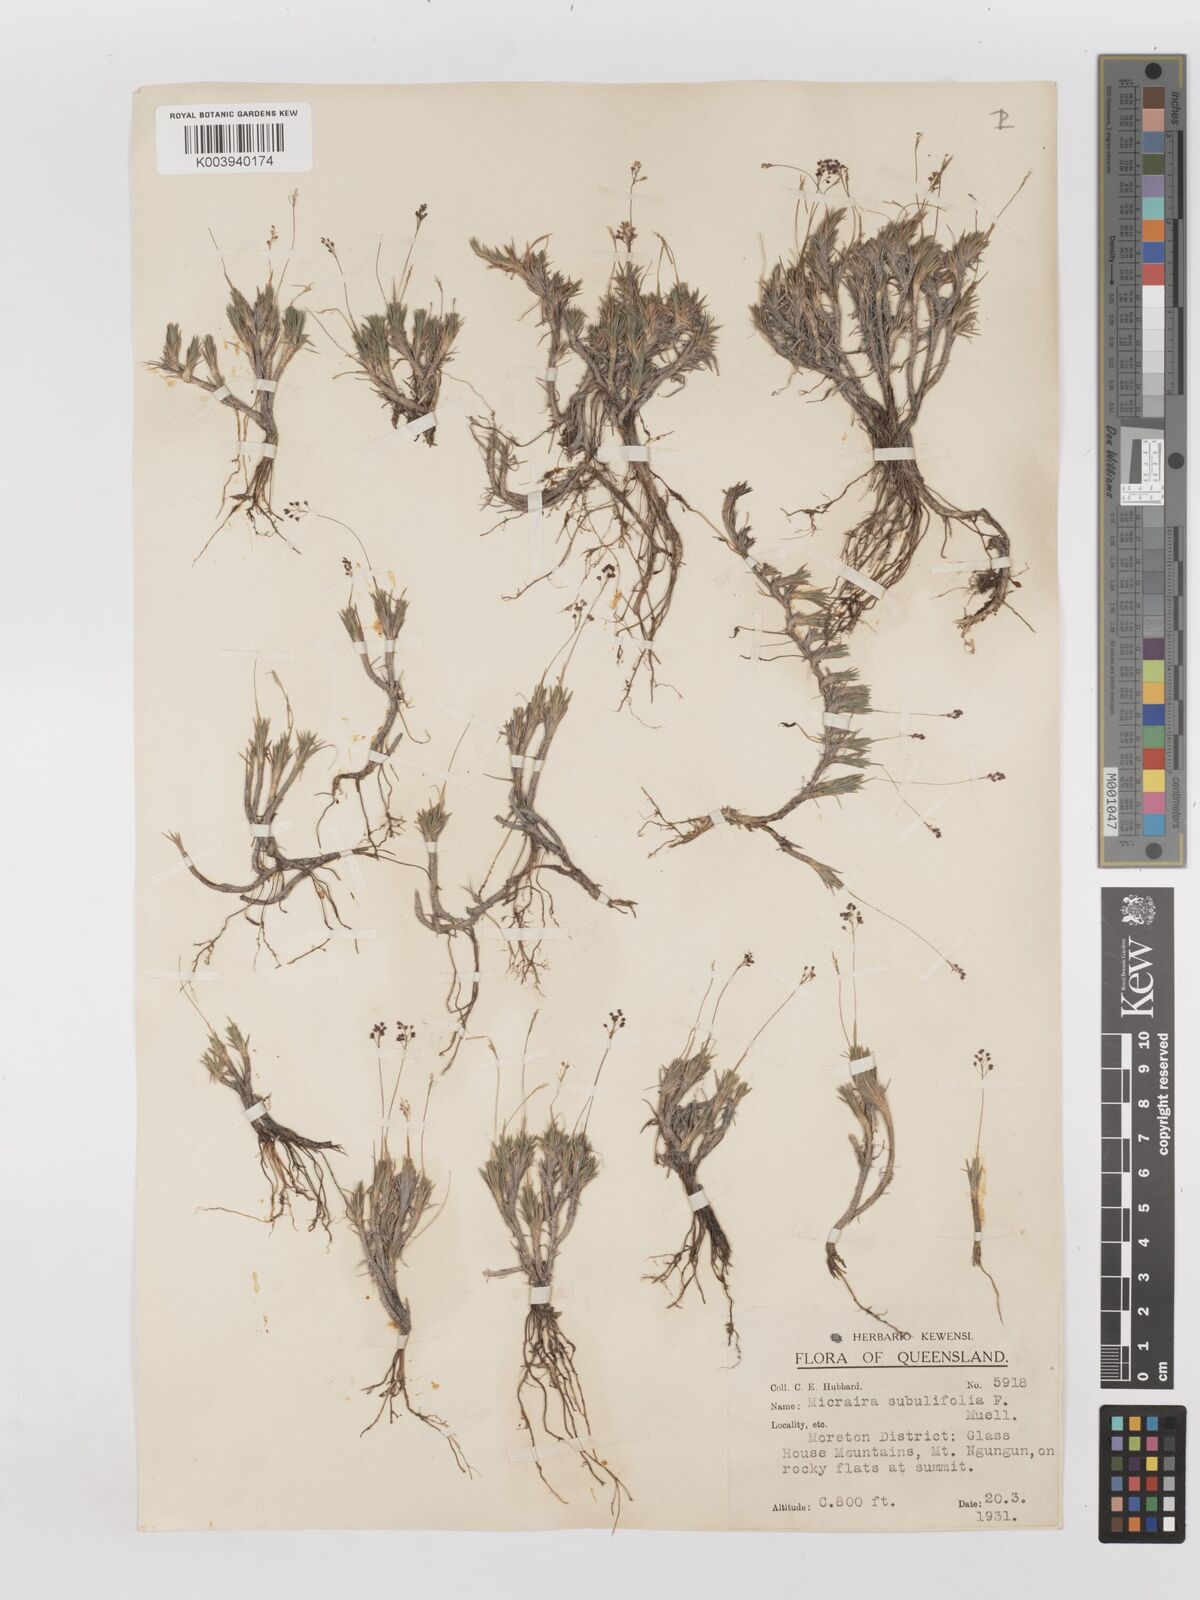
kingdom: Plantae
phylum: Tracheophyta
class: Liliopsida
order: Poales
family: Poaceae
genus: Micraira
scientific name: Micraira subulifolia
